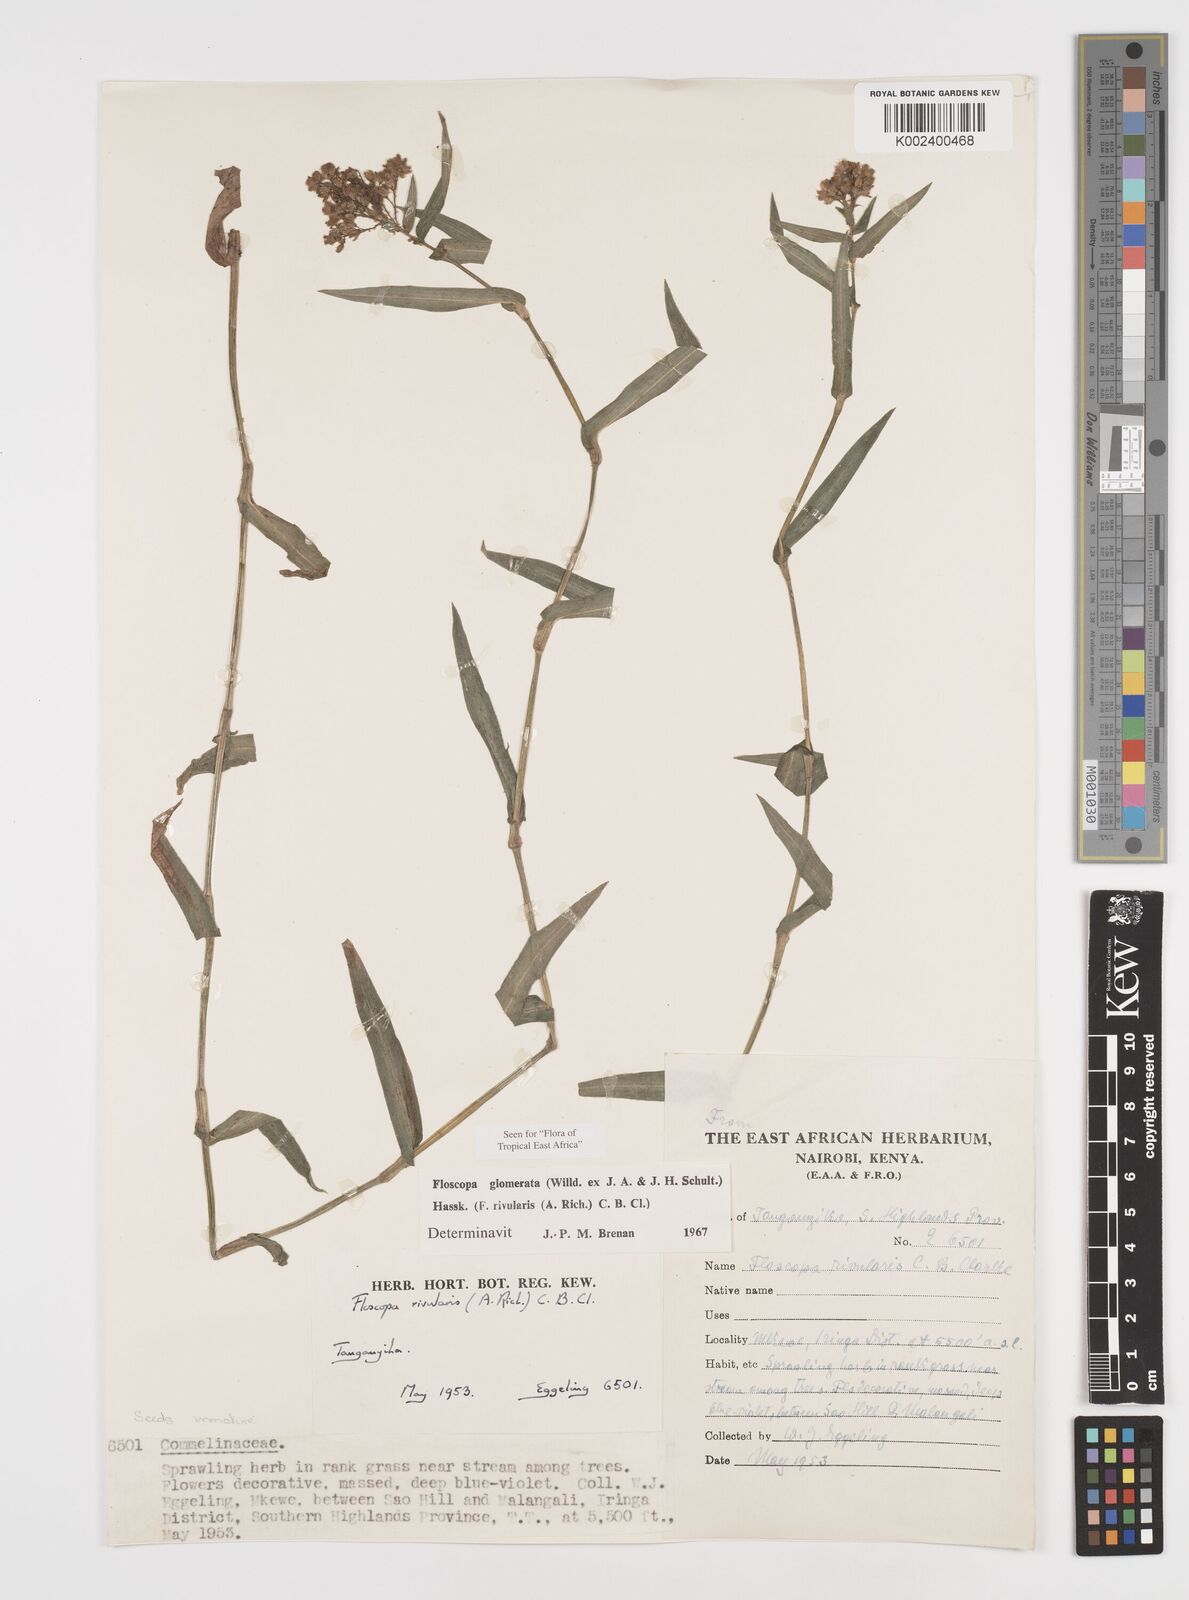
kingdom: Plantae
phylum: Tracheophyta
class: Liliopsida
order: Commelinales
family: Commelinaceae
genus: Floscopa
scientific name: Floscopa glomerata
